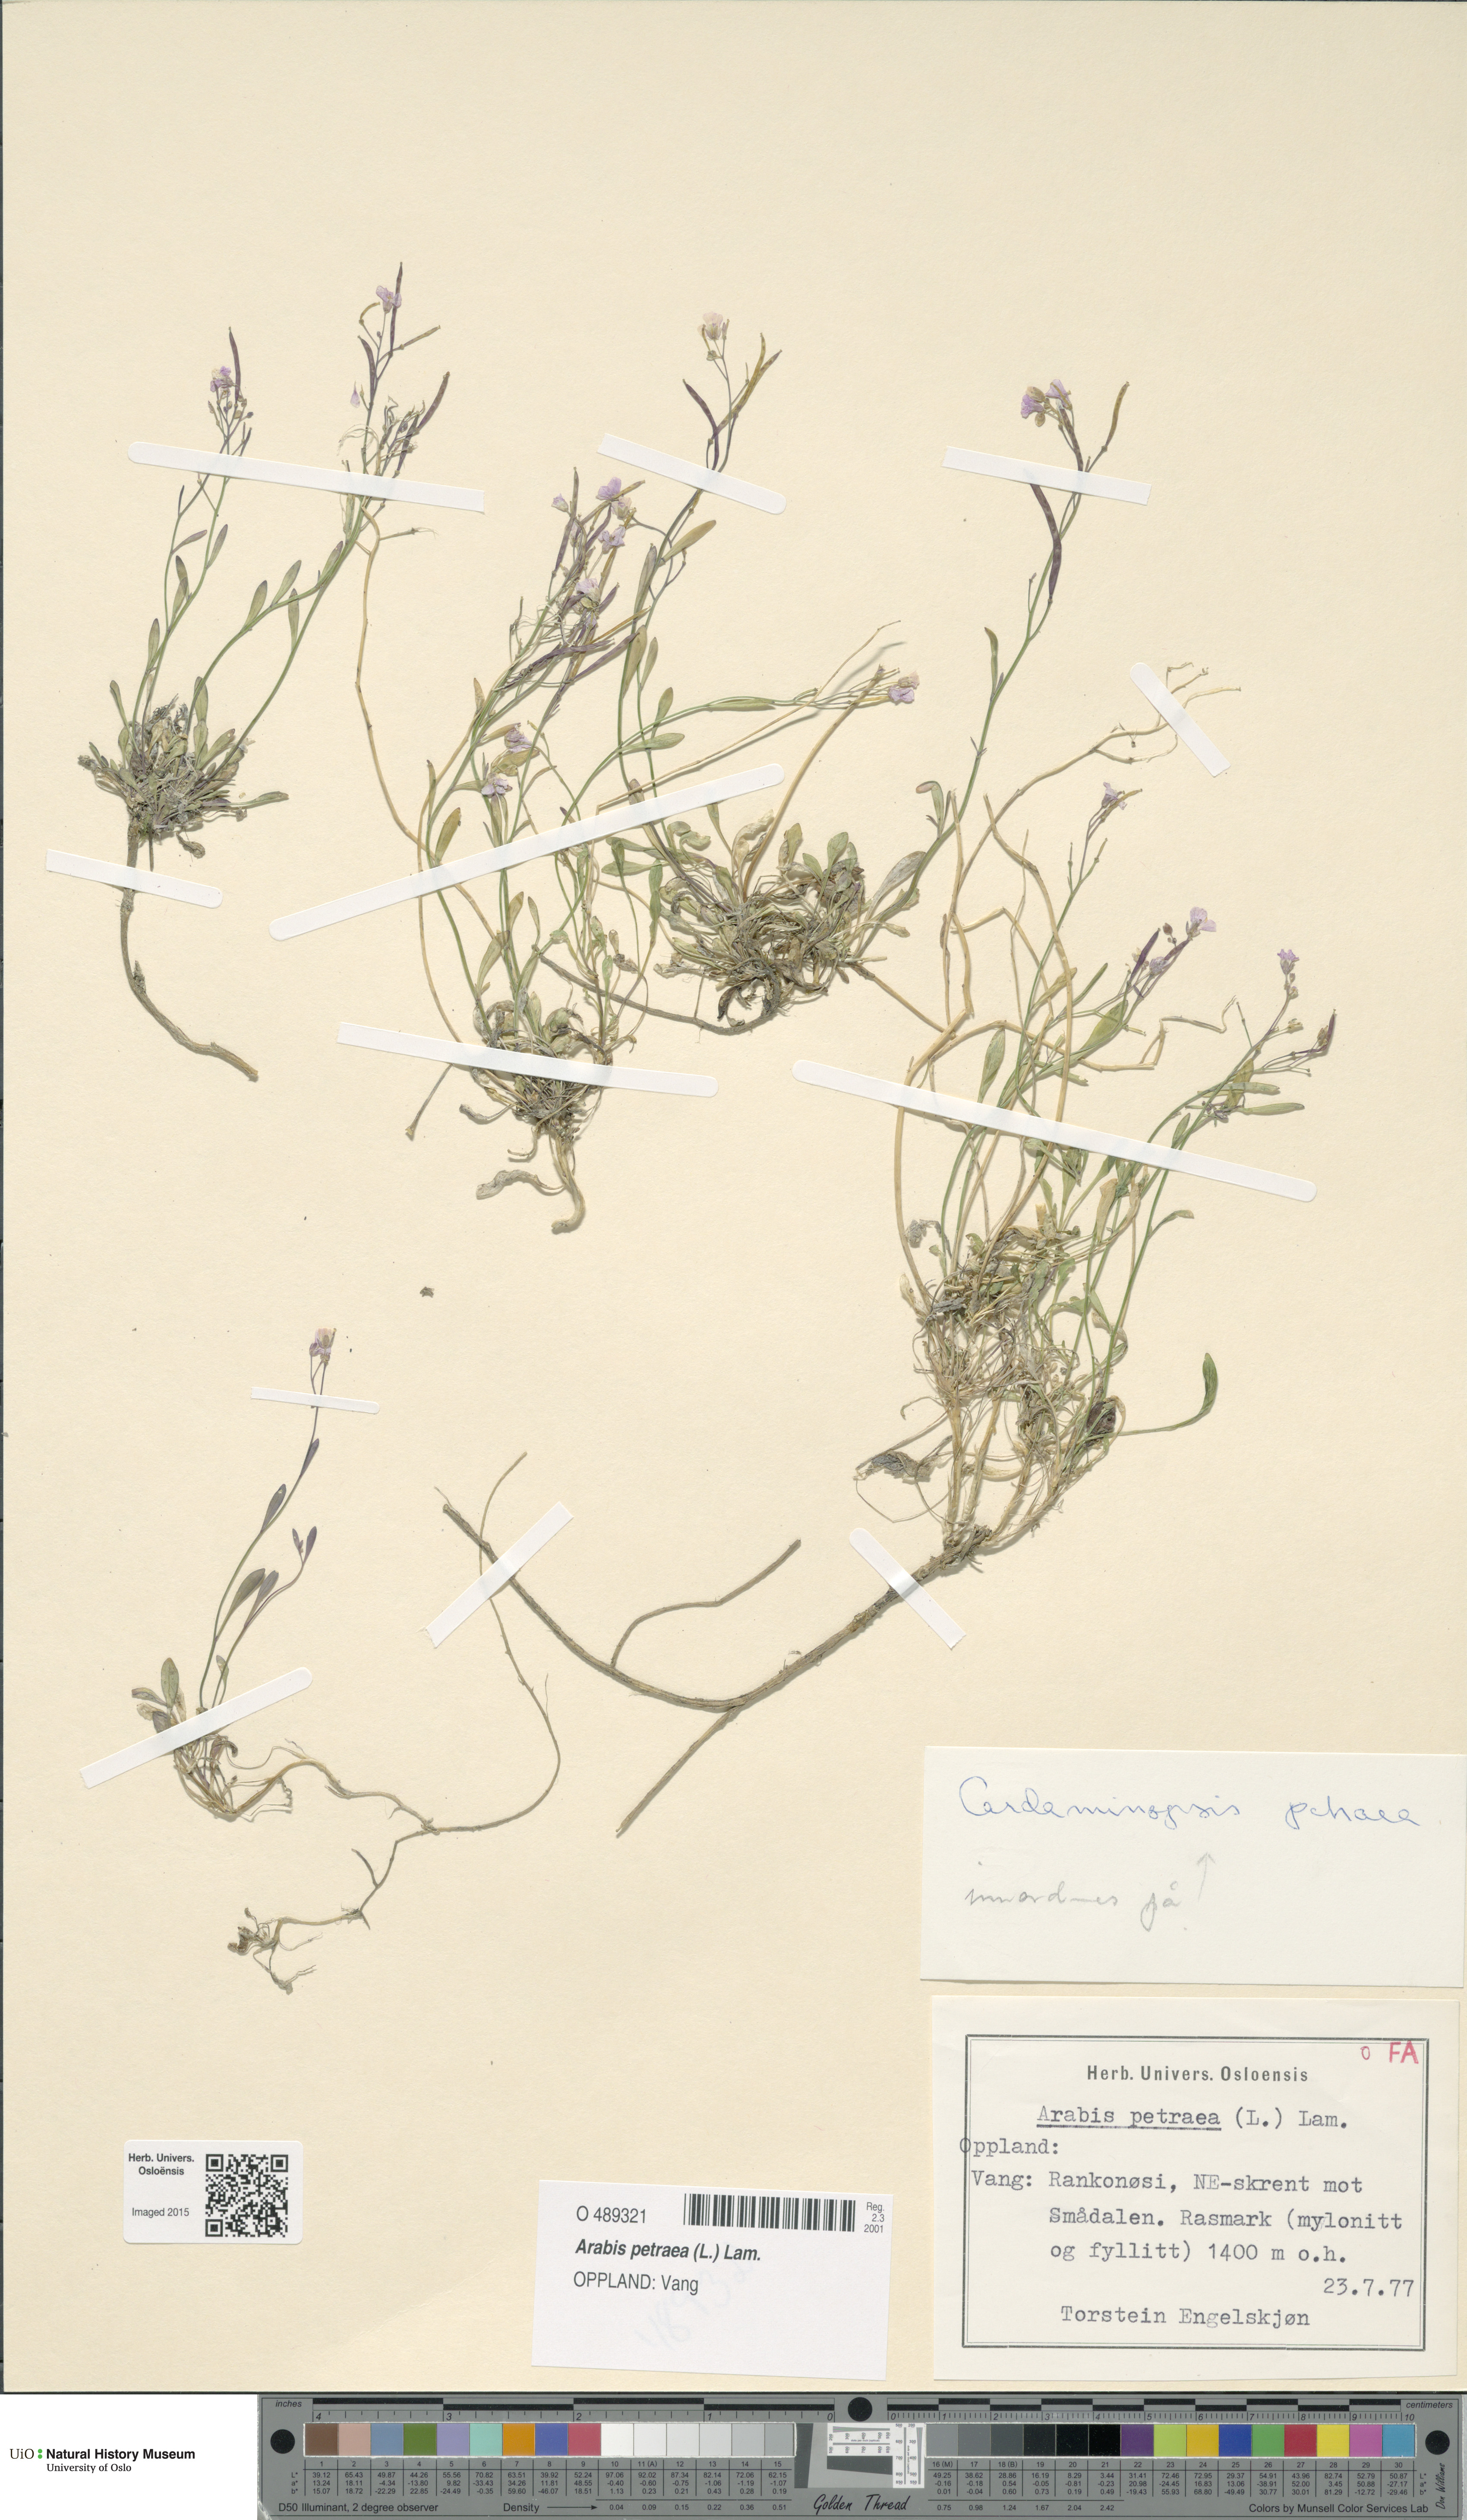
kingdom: Plantae
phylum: Tracheophyta
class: Magnoliopsida
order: Brassicales
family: Brassicaceae
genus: Arabidopsis
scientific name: Arabidopsis petraea
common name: Northern rock-cress
